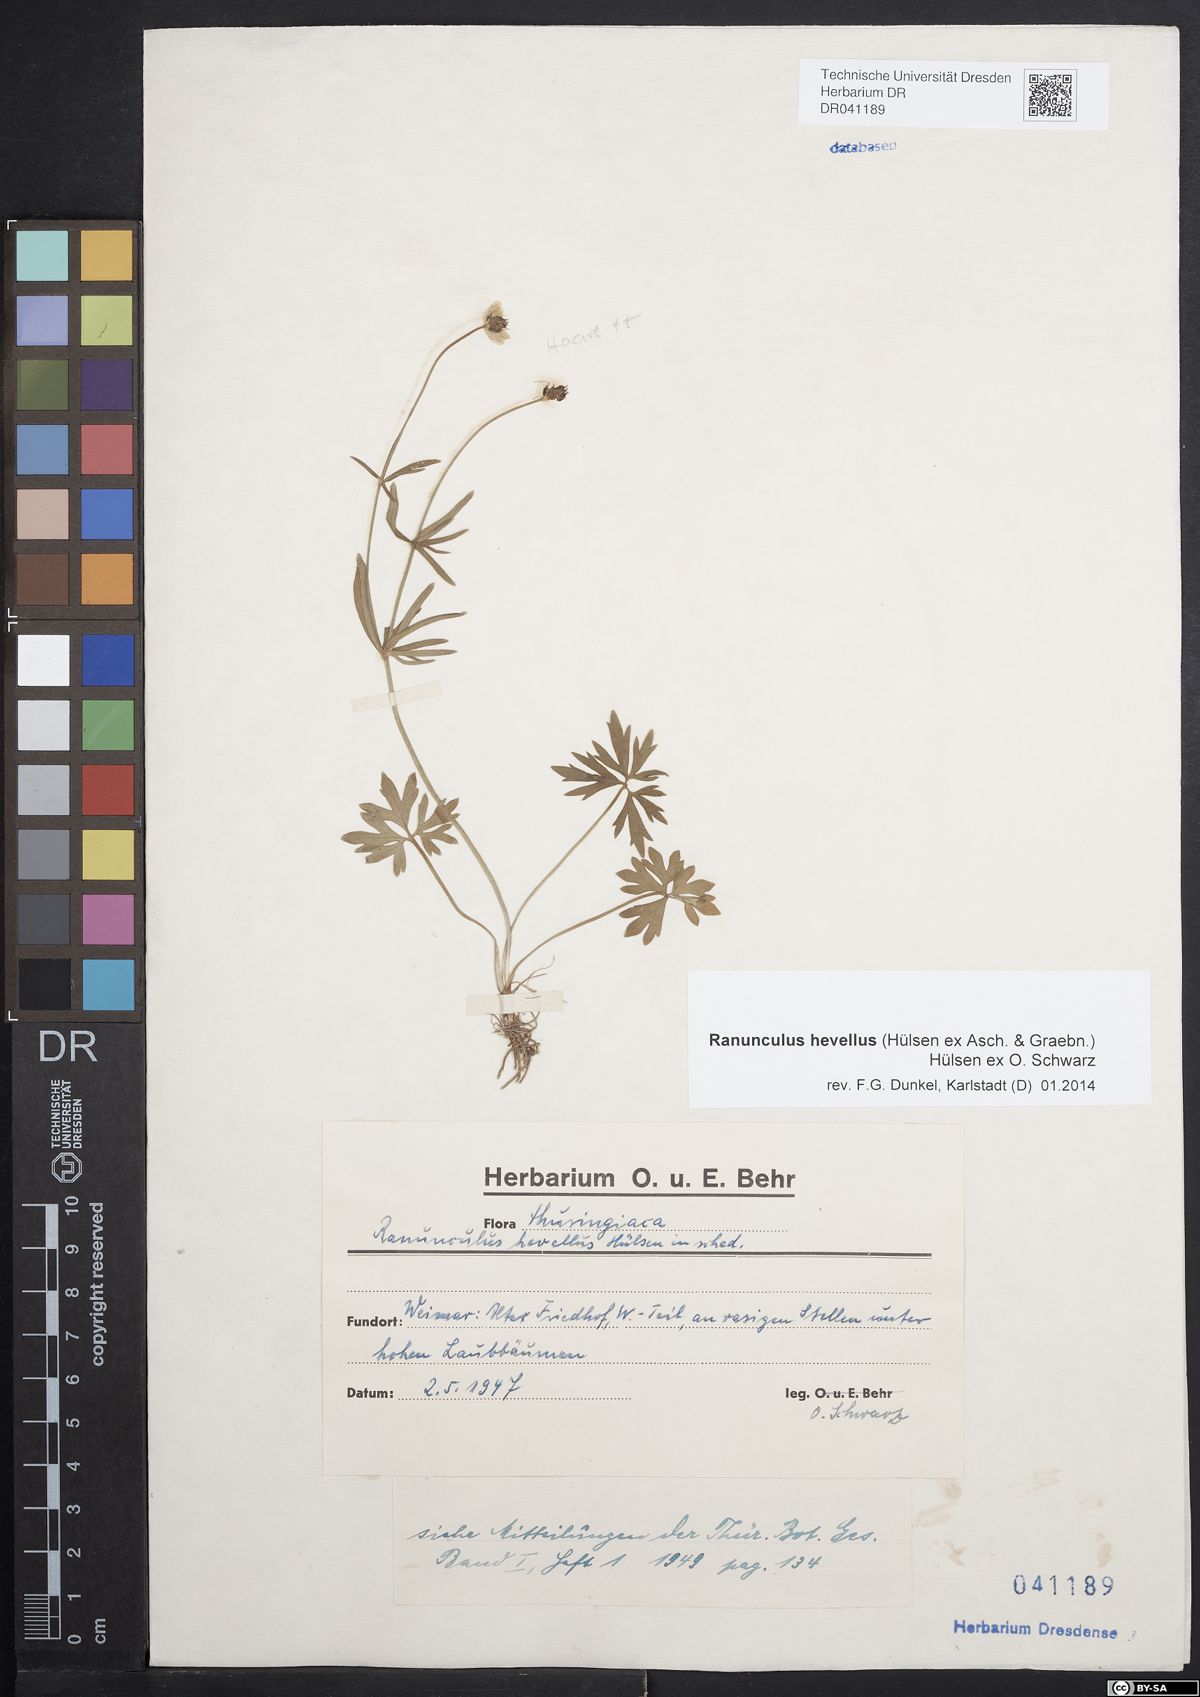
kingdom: Plantae
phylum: Tracheophyta
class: Magnoliopsida
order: Ranunculales
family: Ranunculaceae
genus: Ranunculus
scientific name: Ranunculus hevellus
